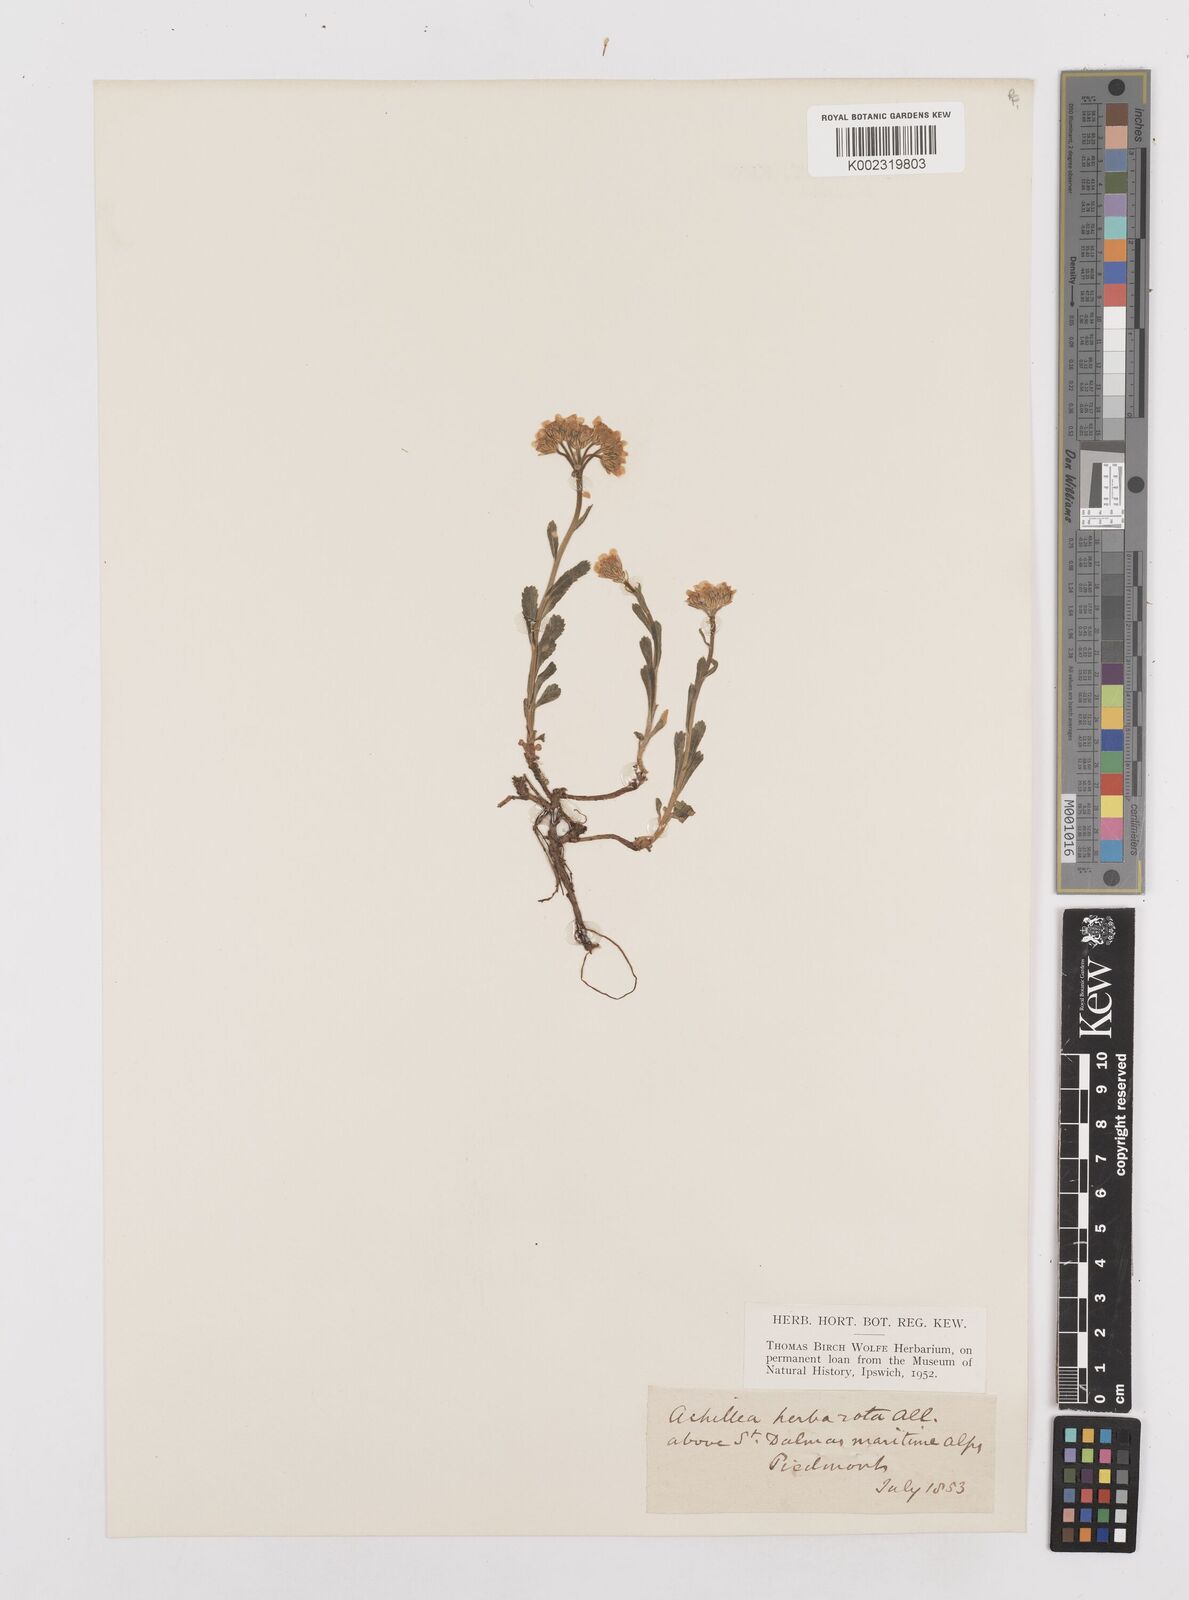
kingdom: Plantae
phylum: Tracheophyta
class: Magnoliopsida
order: Asterales
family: Asteraceae
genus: Achillea
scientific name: Achillea erba-rotta
